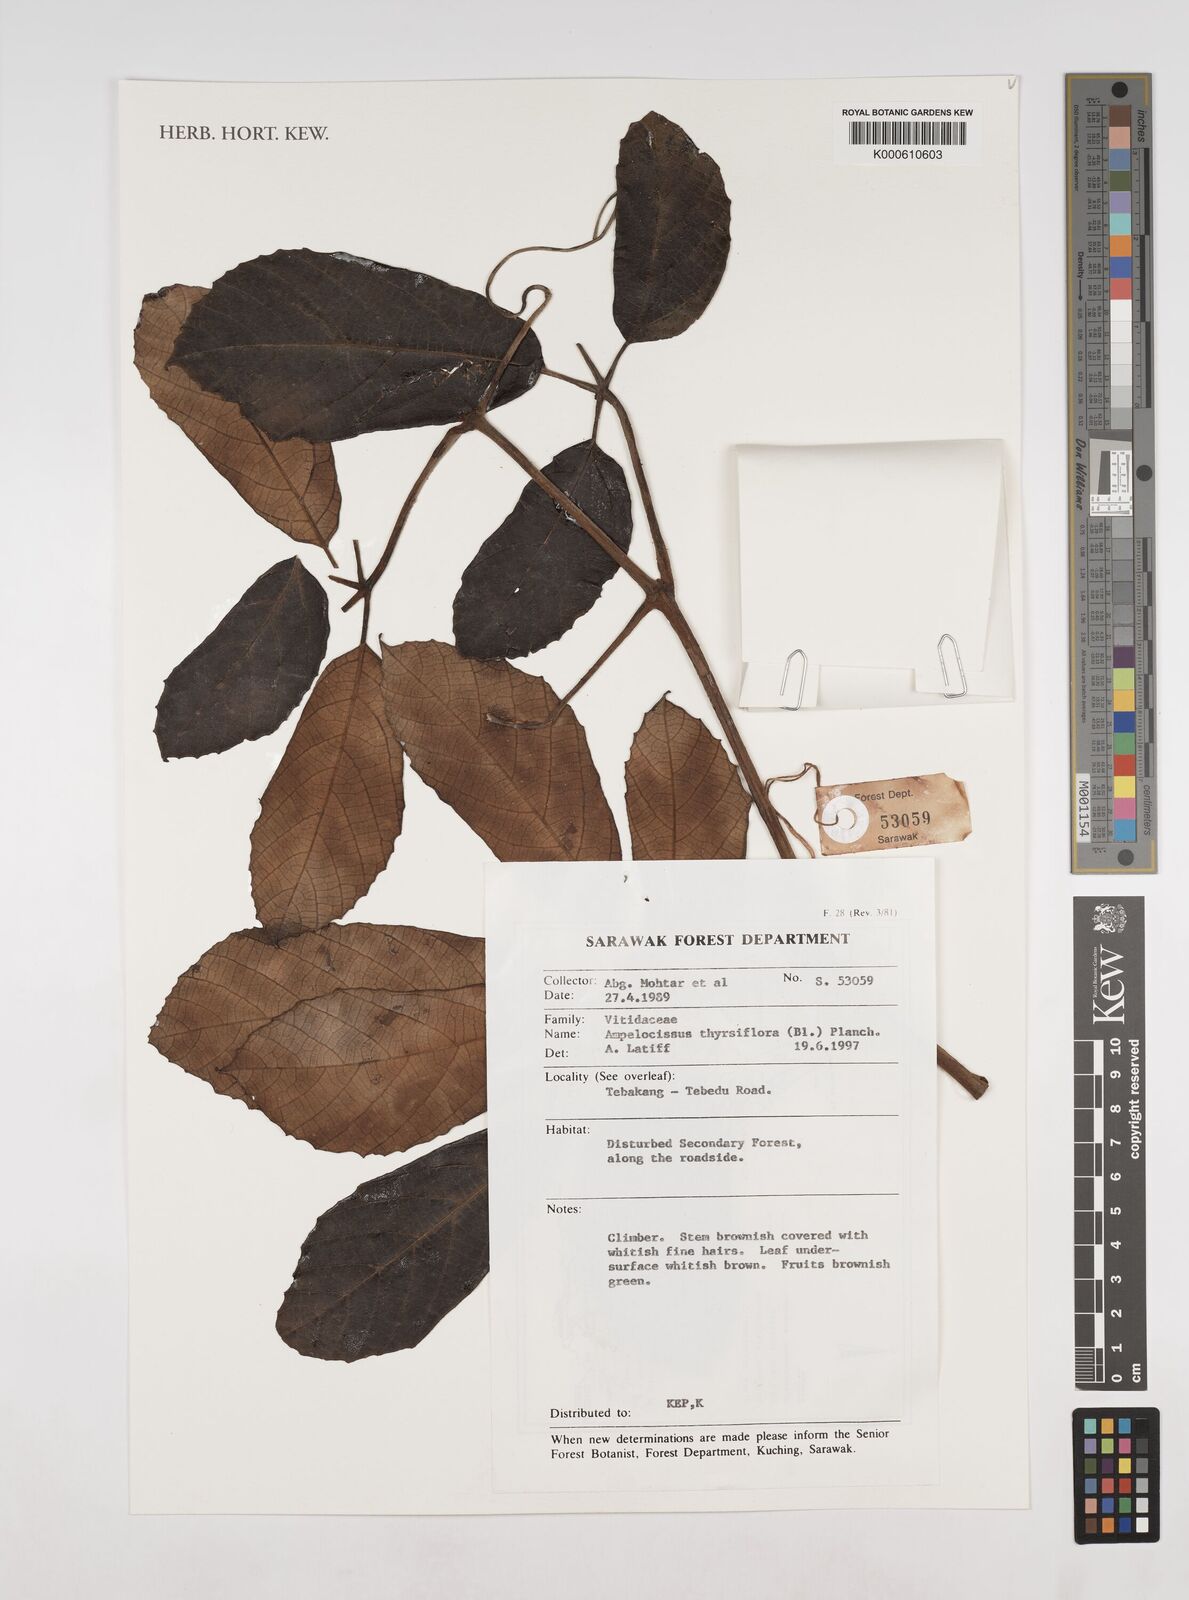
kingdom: Plantae
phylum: Tracheophyta
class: Magnoliopsida
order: Vitales
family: Vitaceae
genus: Ampelocissus
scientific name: Ampelocissus thyrsiflora
